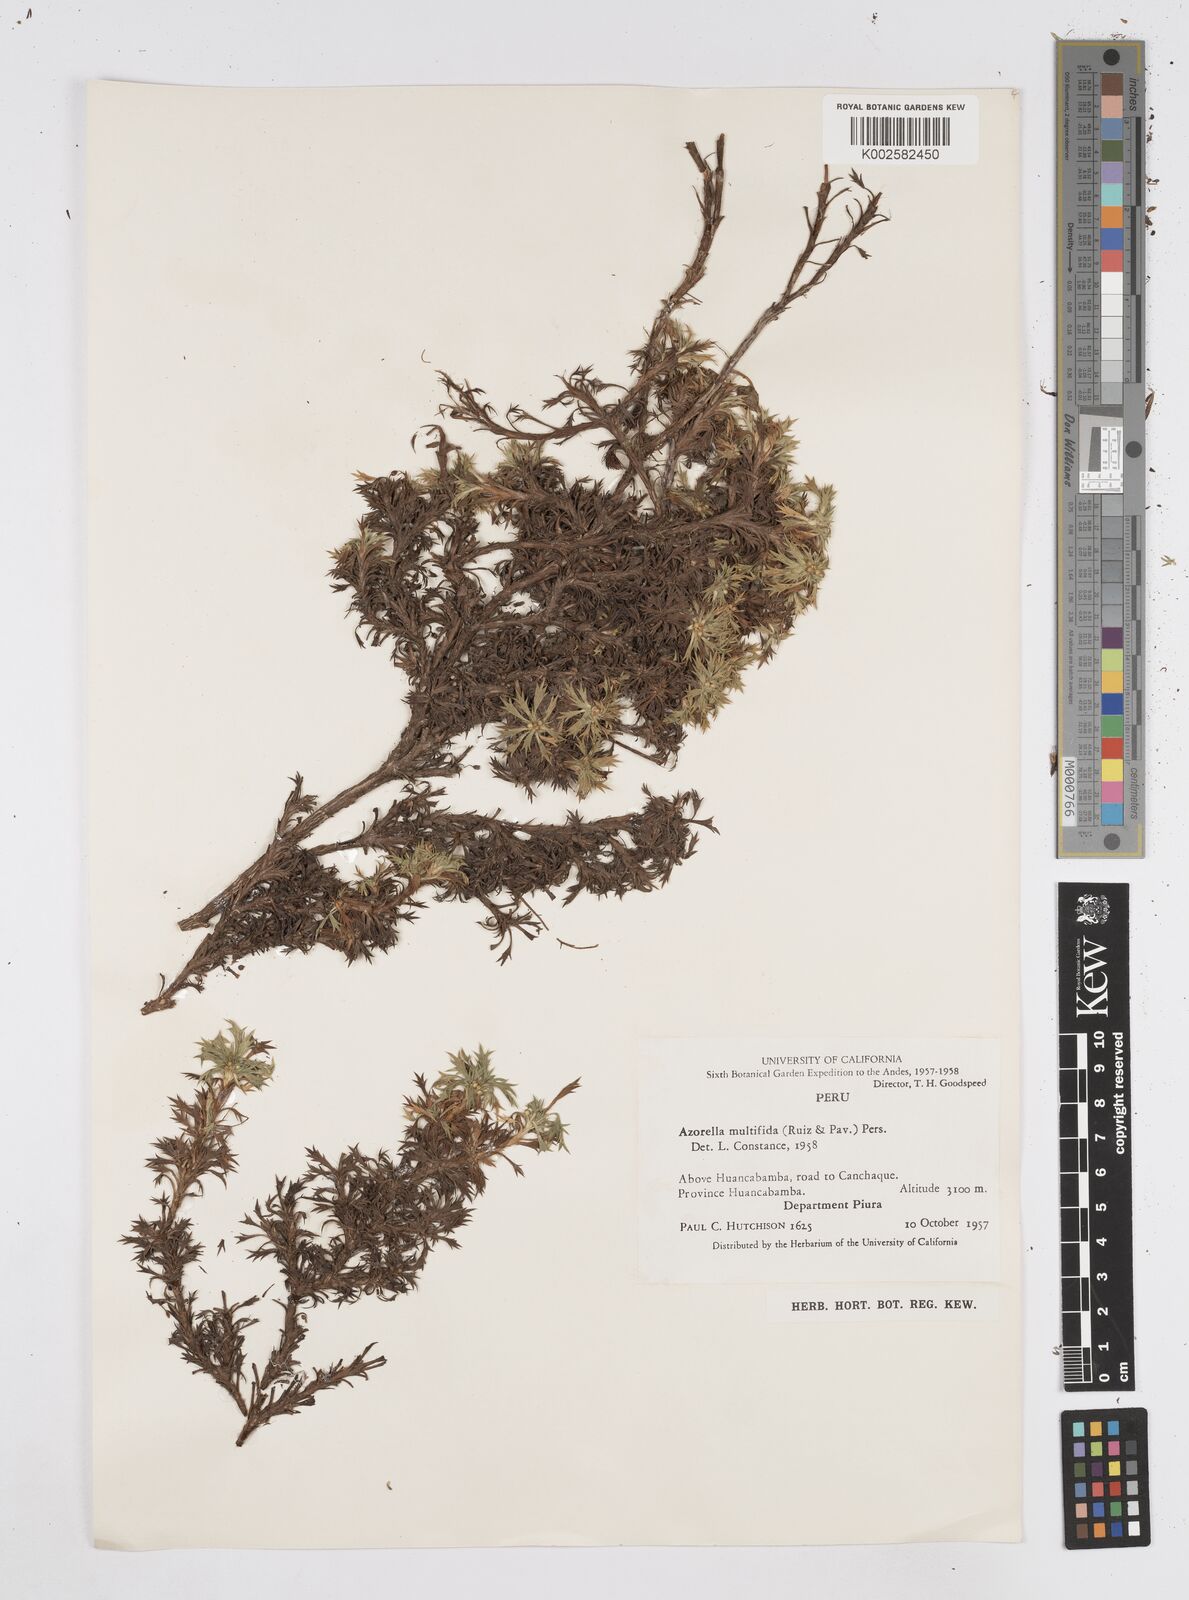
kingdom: Plantae
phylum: Tracheophyta
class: Magnoliopsida
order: Apiales
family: Apiaceae
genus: Azorella
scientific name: Azorella multifida
